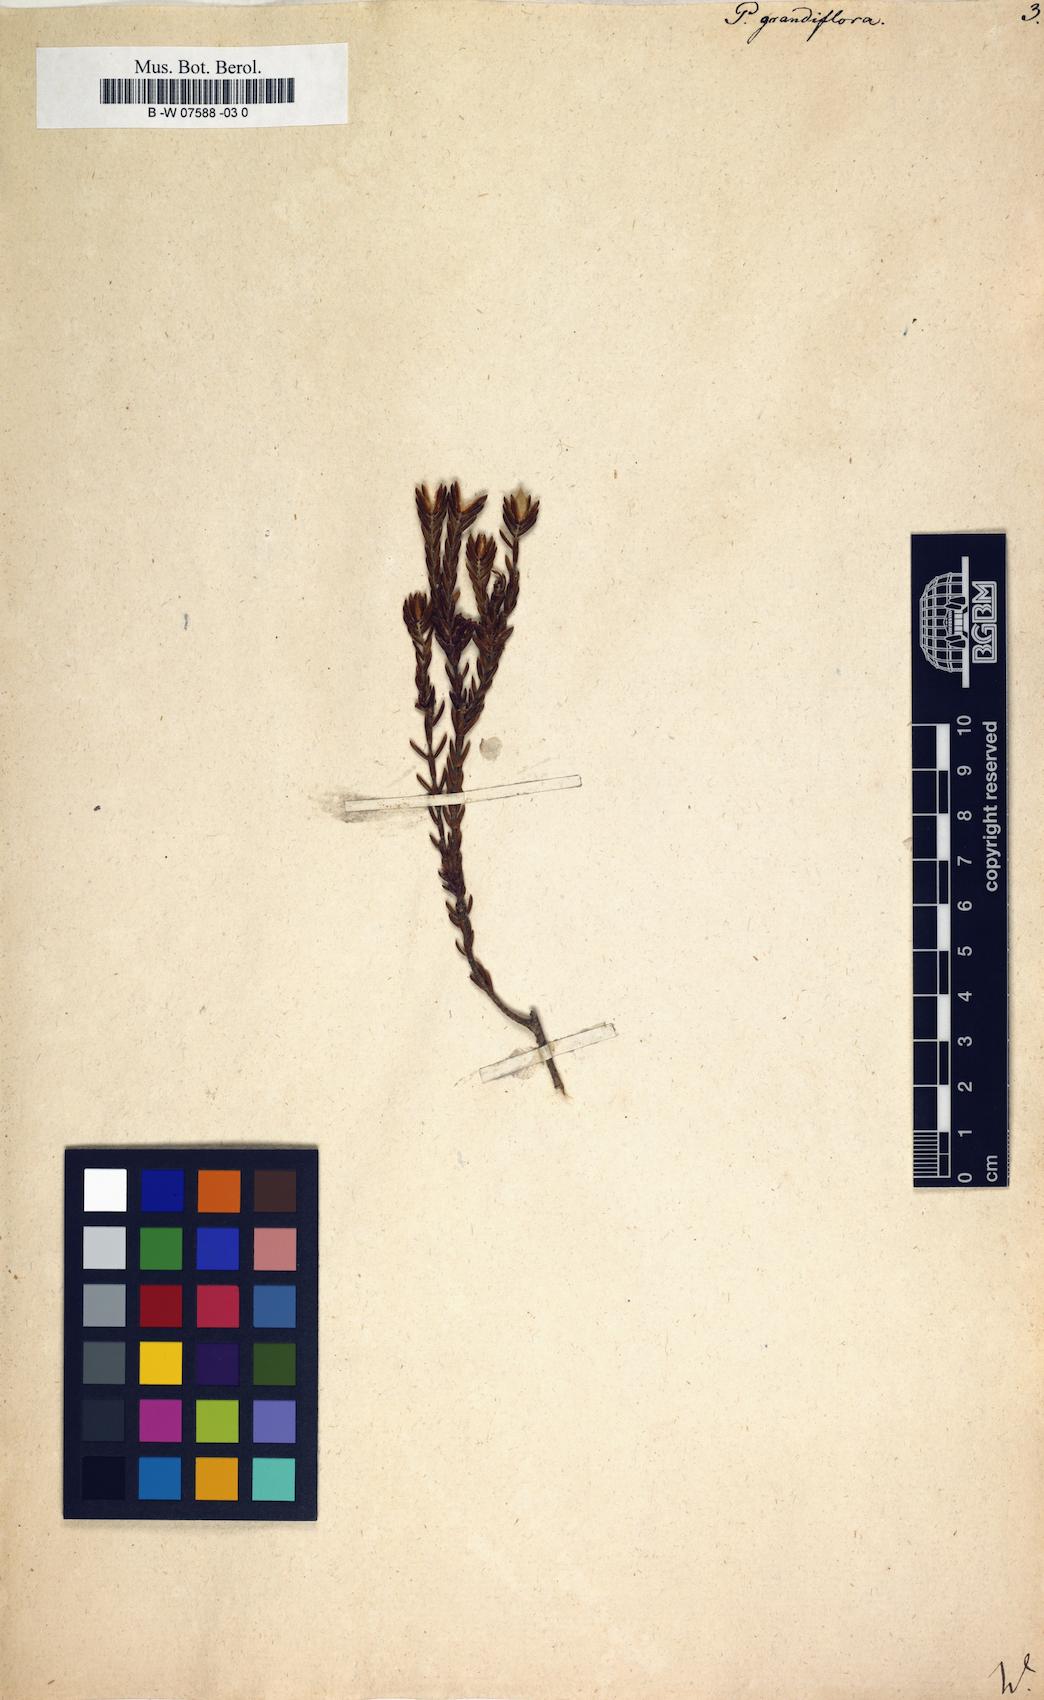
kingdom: Plantae
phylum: Tracheophyta
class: Magnoliopsida
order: Malvales
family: Thymelaeaceae
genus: Lachnaea
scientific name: Lachnaea grandiflora
